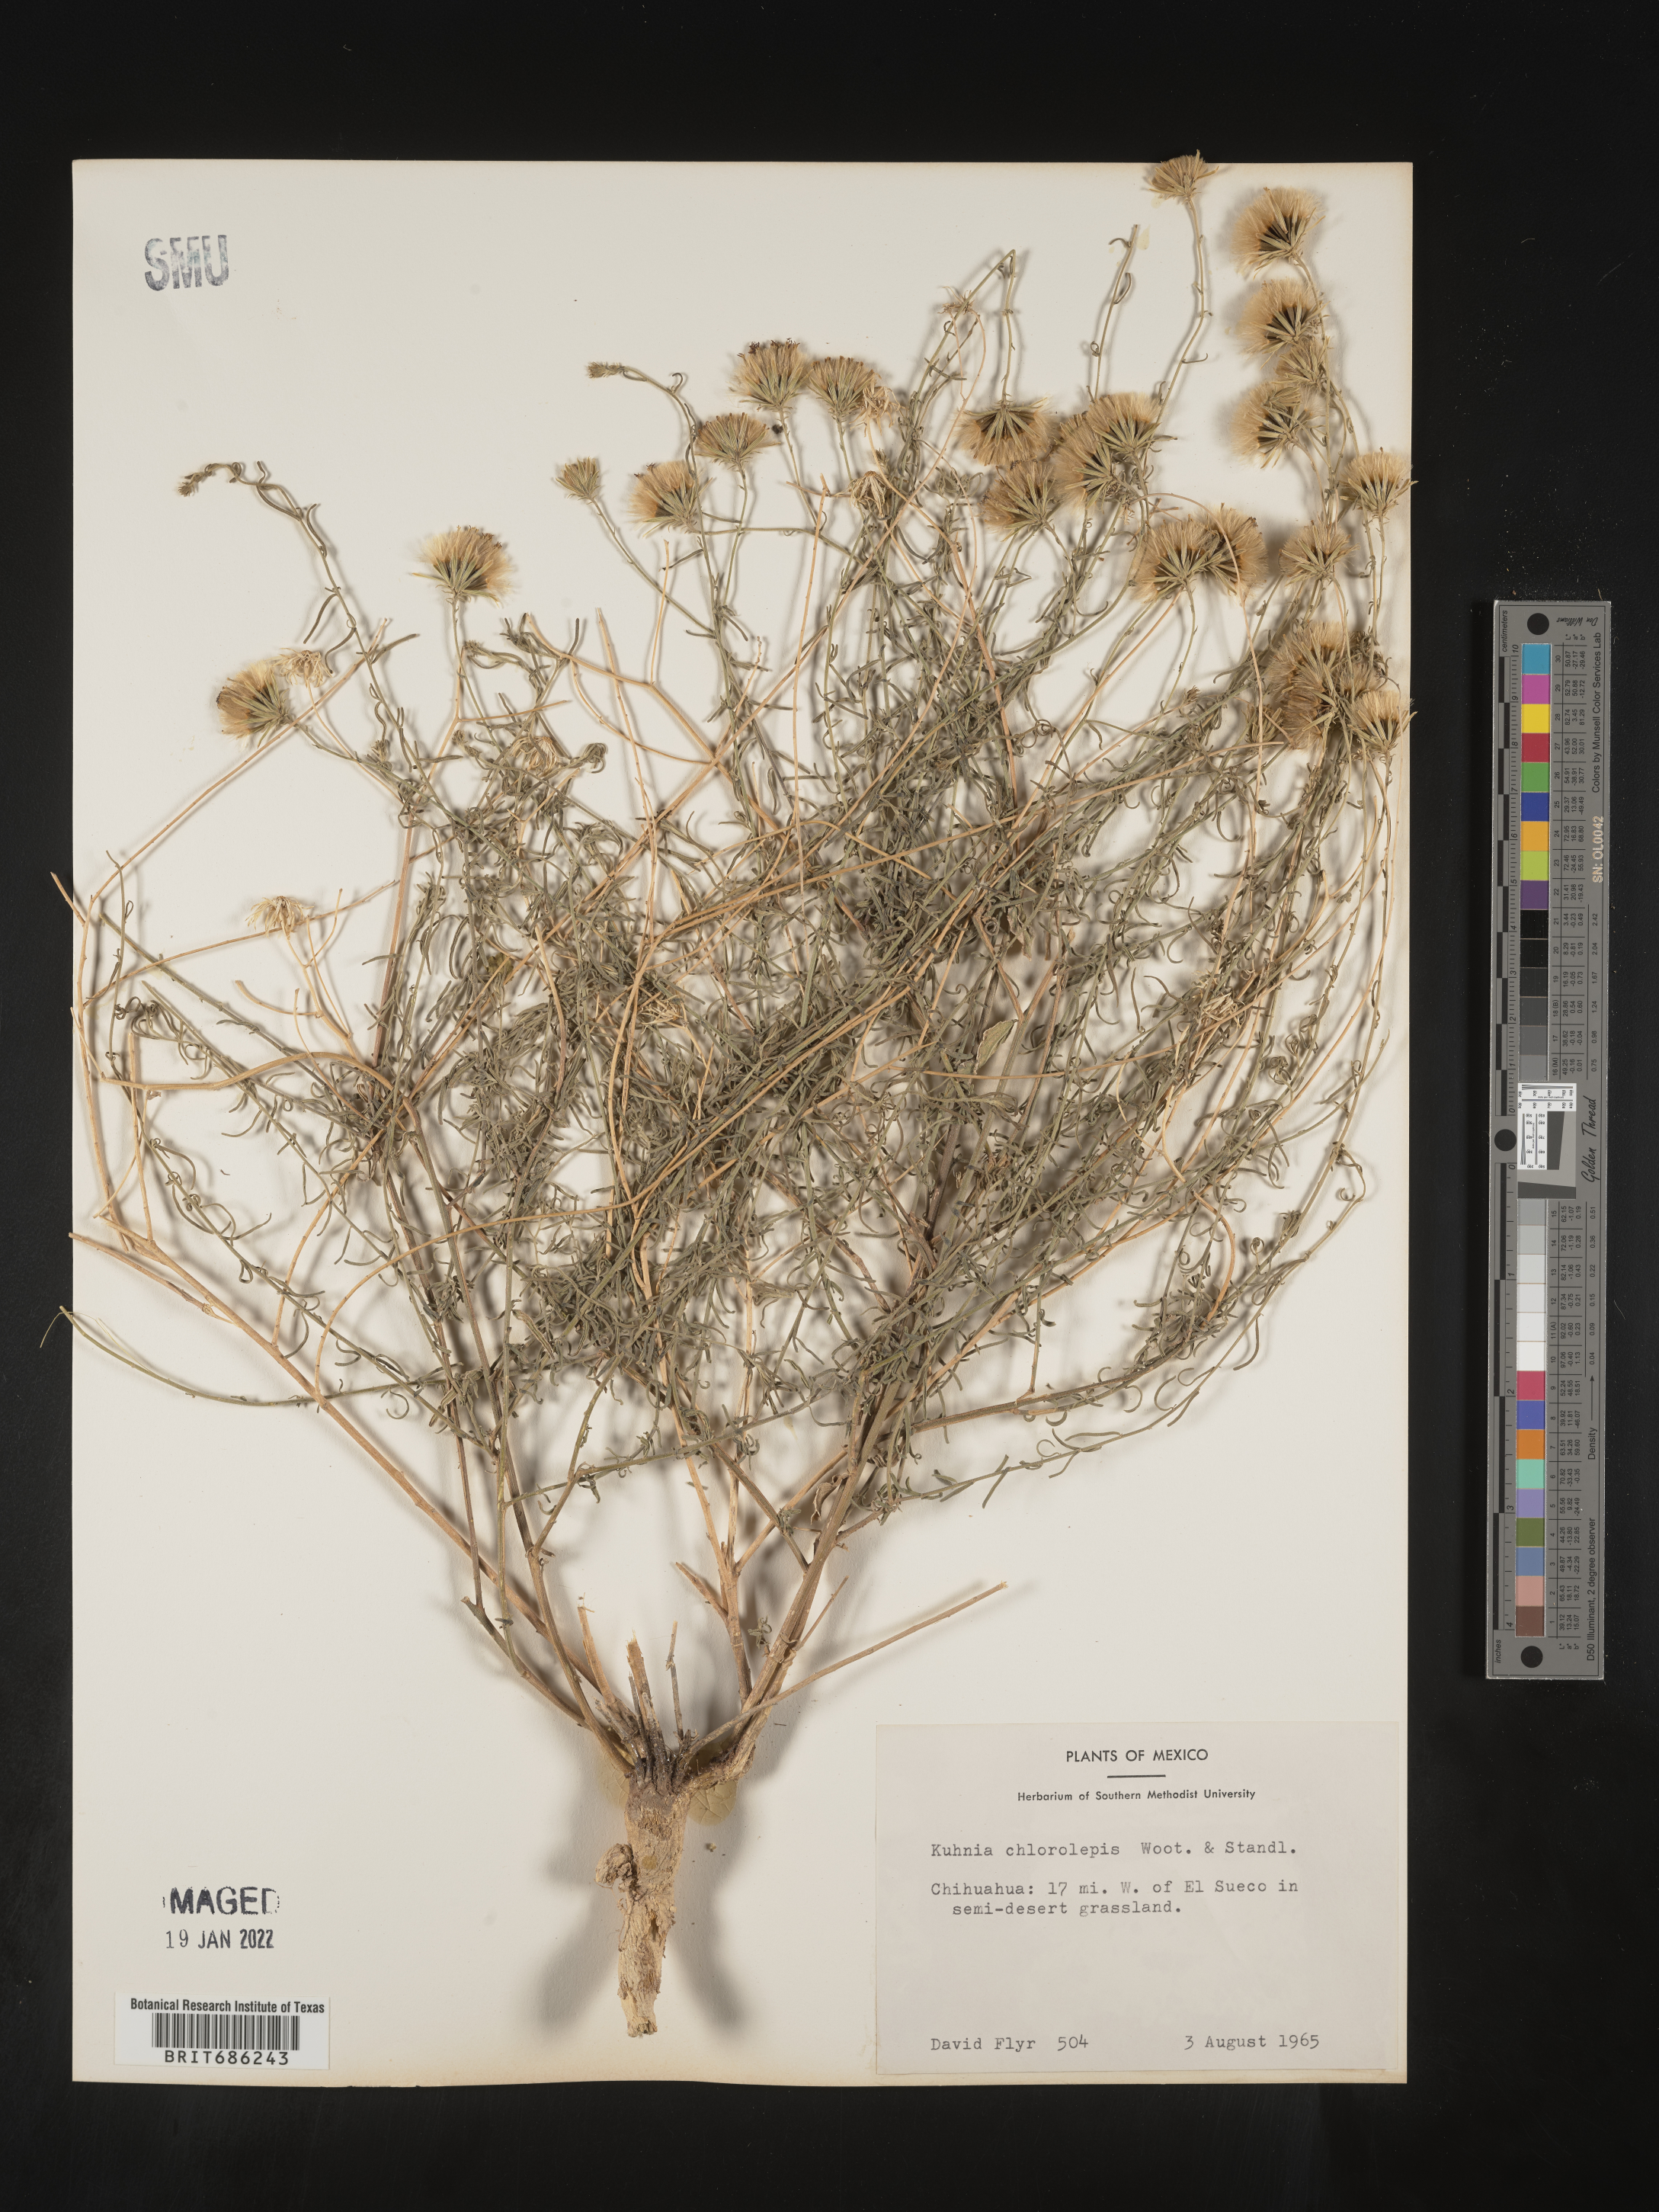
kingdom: Plantae
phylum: Tracheophyta
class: Magnoliopsida
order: Asterales
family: Asteraceae
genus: Brickellia
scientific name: Brickellia
